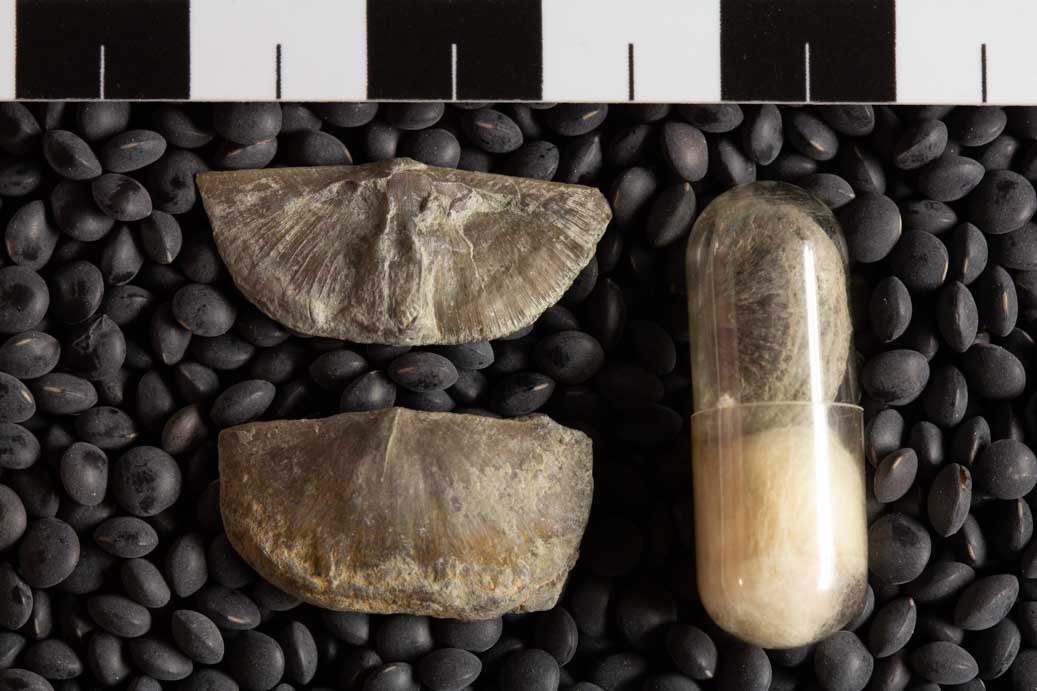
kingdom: Animalia
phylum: Brachiopoda
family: Sowerbyellidae
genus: Sowerbyella
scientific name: Sowerbyella Leptaena rugosa
